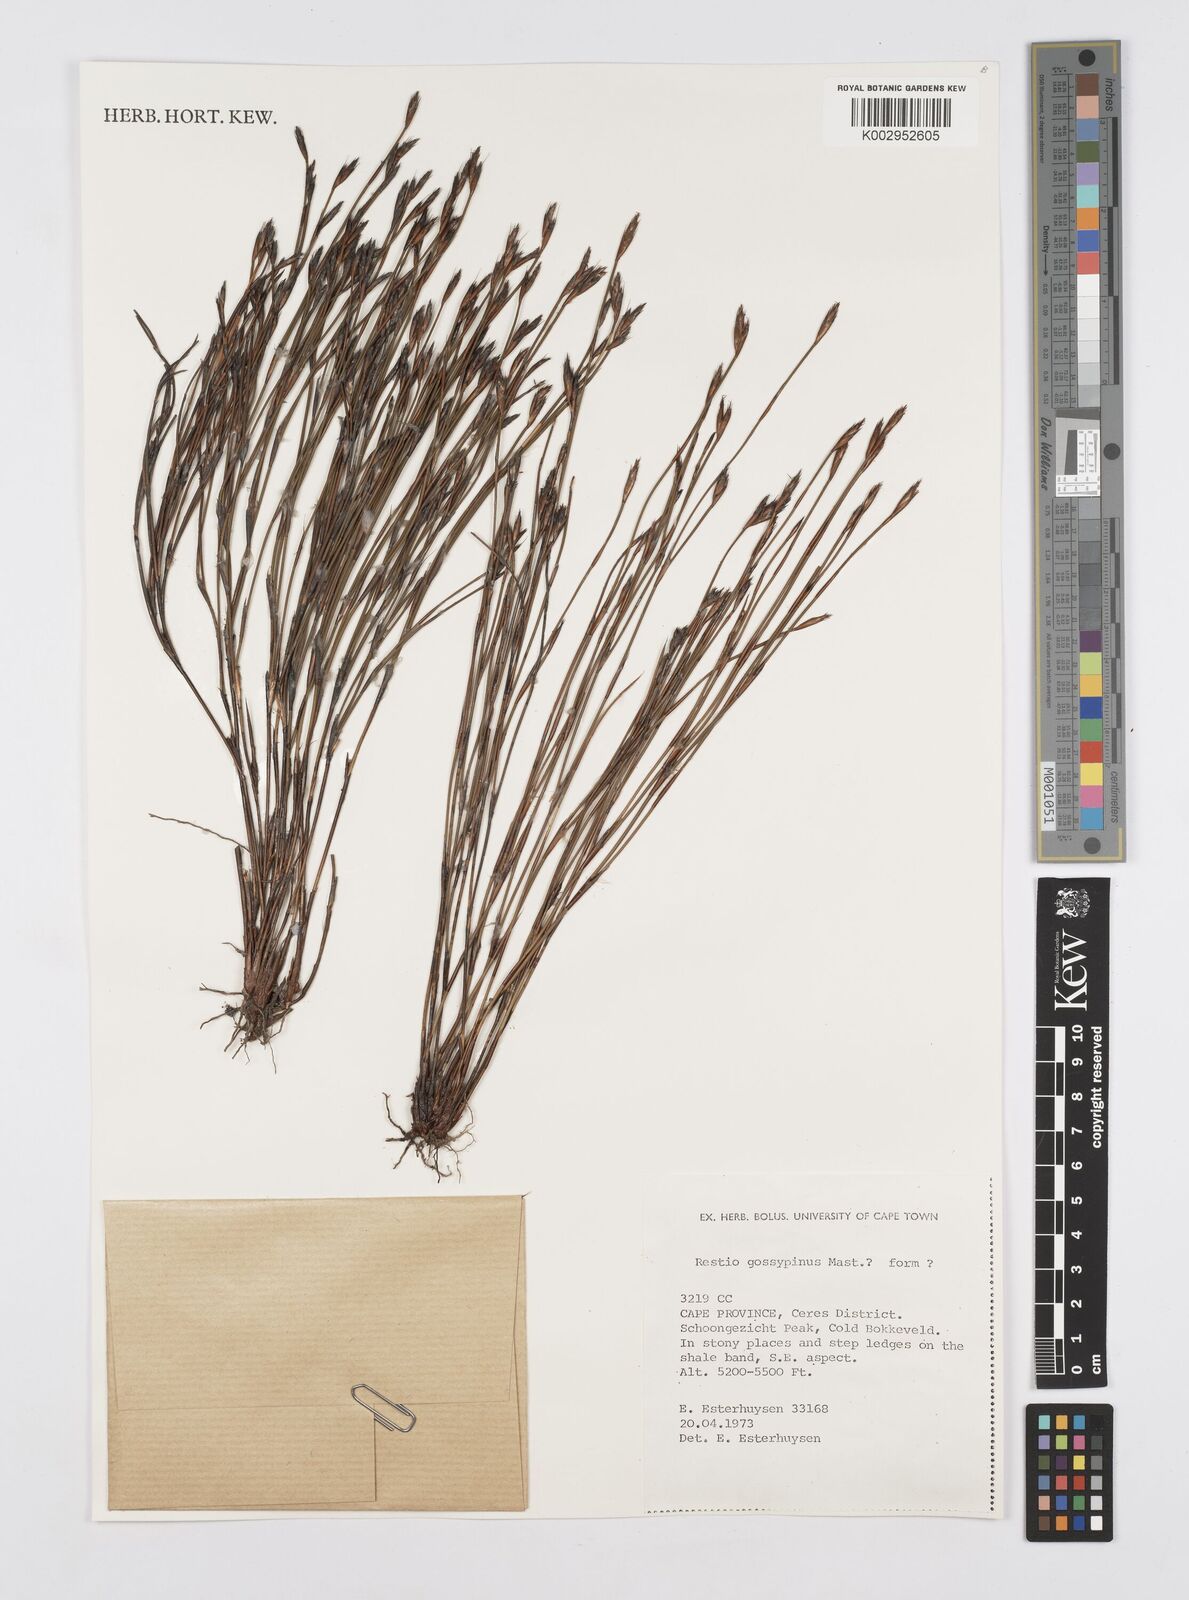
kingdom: Plantae
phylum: Tracheophyta
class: Liliopsida
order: Poales
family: Restionaceae
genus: Restio
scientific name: Restio gossypinus
